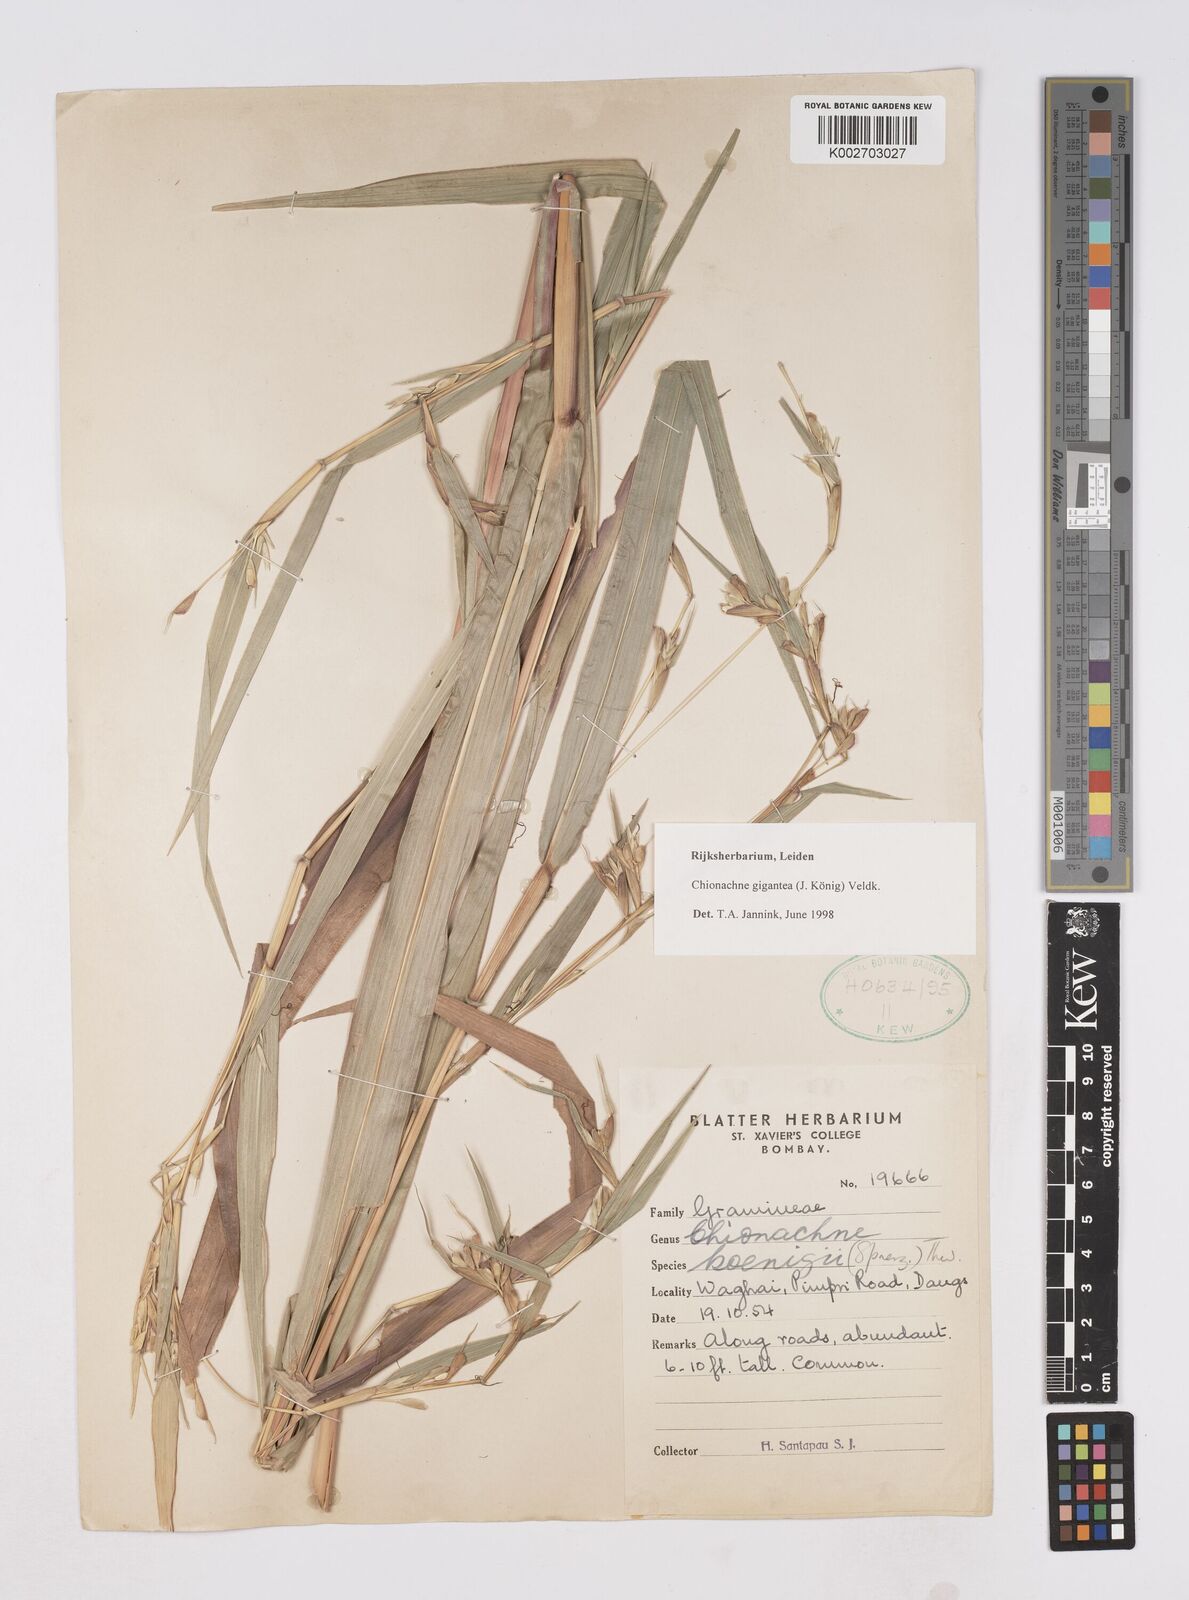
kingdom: Plantae
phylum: Tracheophyta
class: Liliopsida
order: Poales
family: Poaceae
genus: Polytoca
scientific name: Polytoca gigantea
